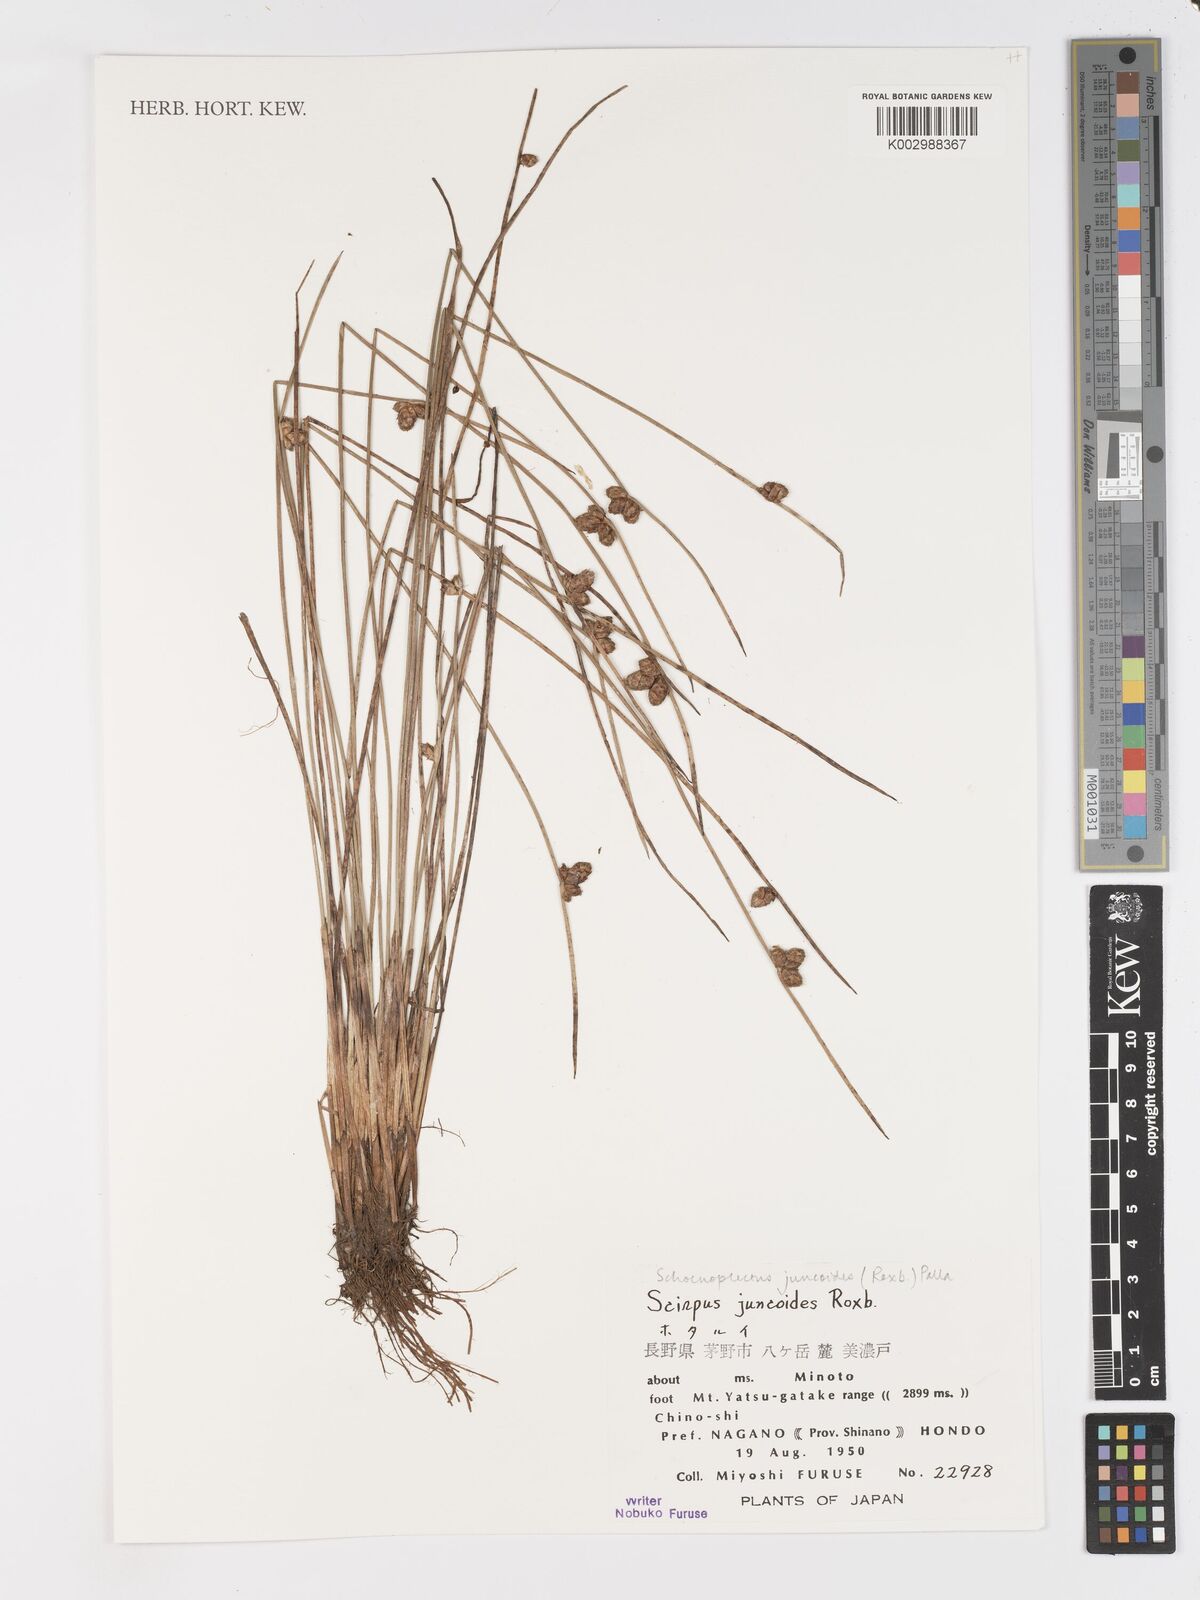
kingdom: Plantae
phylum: Tracheophyta
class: Liliopsida
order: Poales
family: Cyperaceae
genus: Schoenoplectiella
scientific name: Schoenoplectiella juncoides
